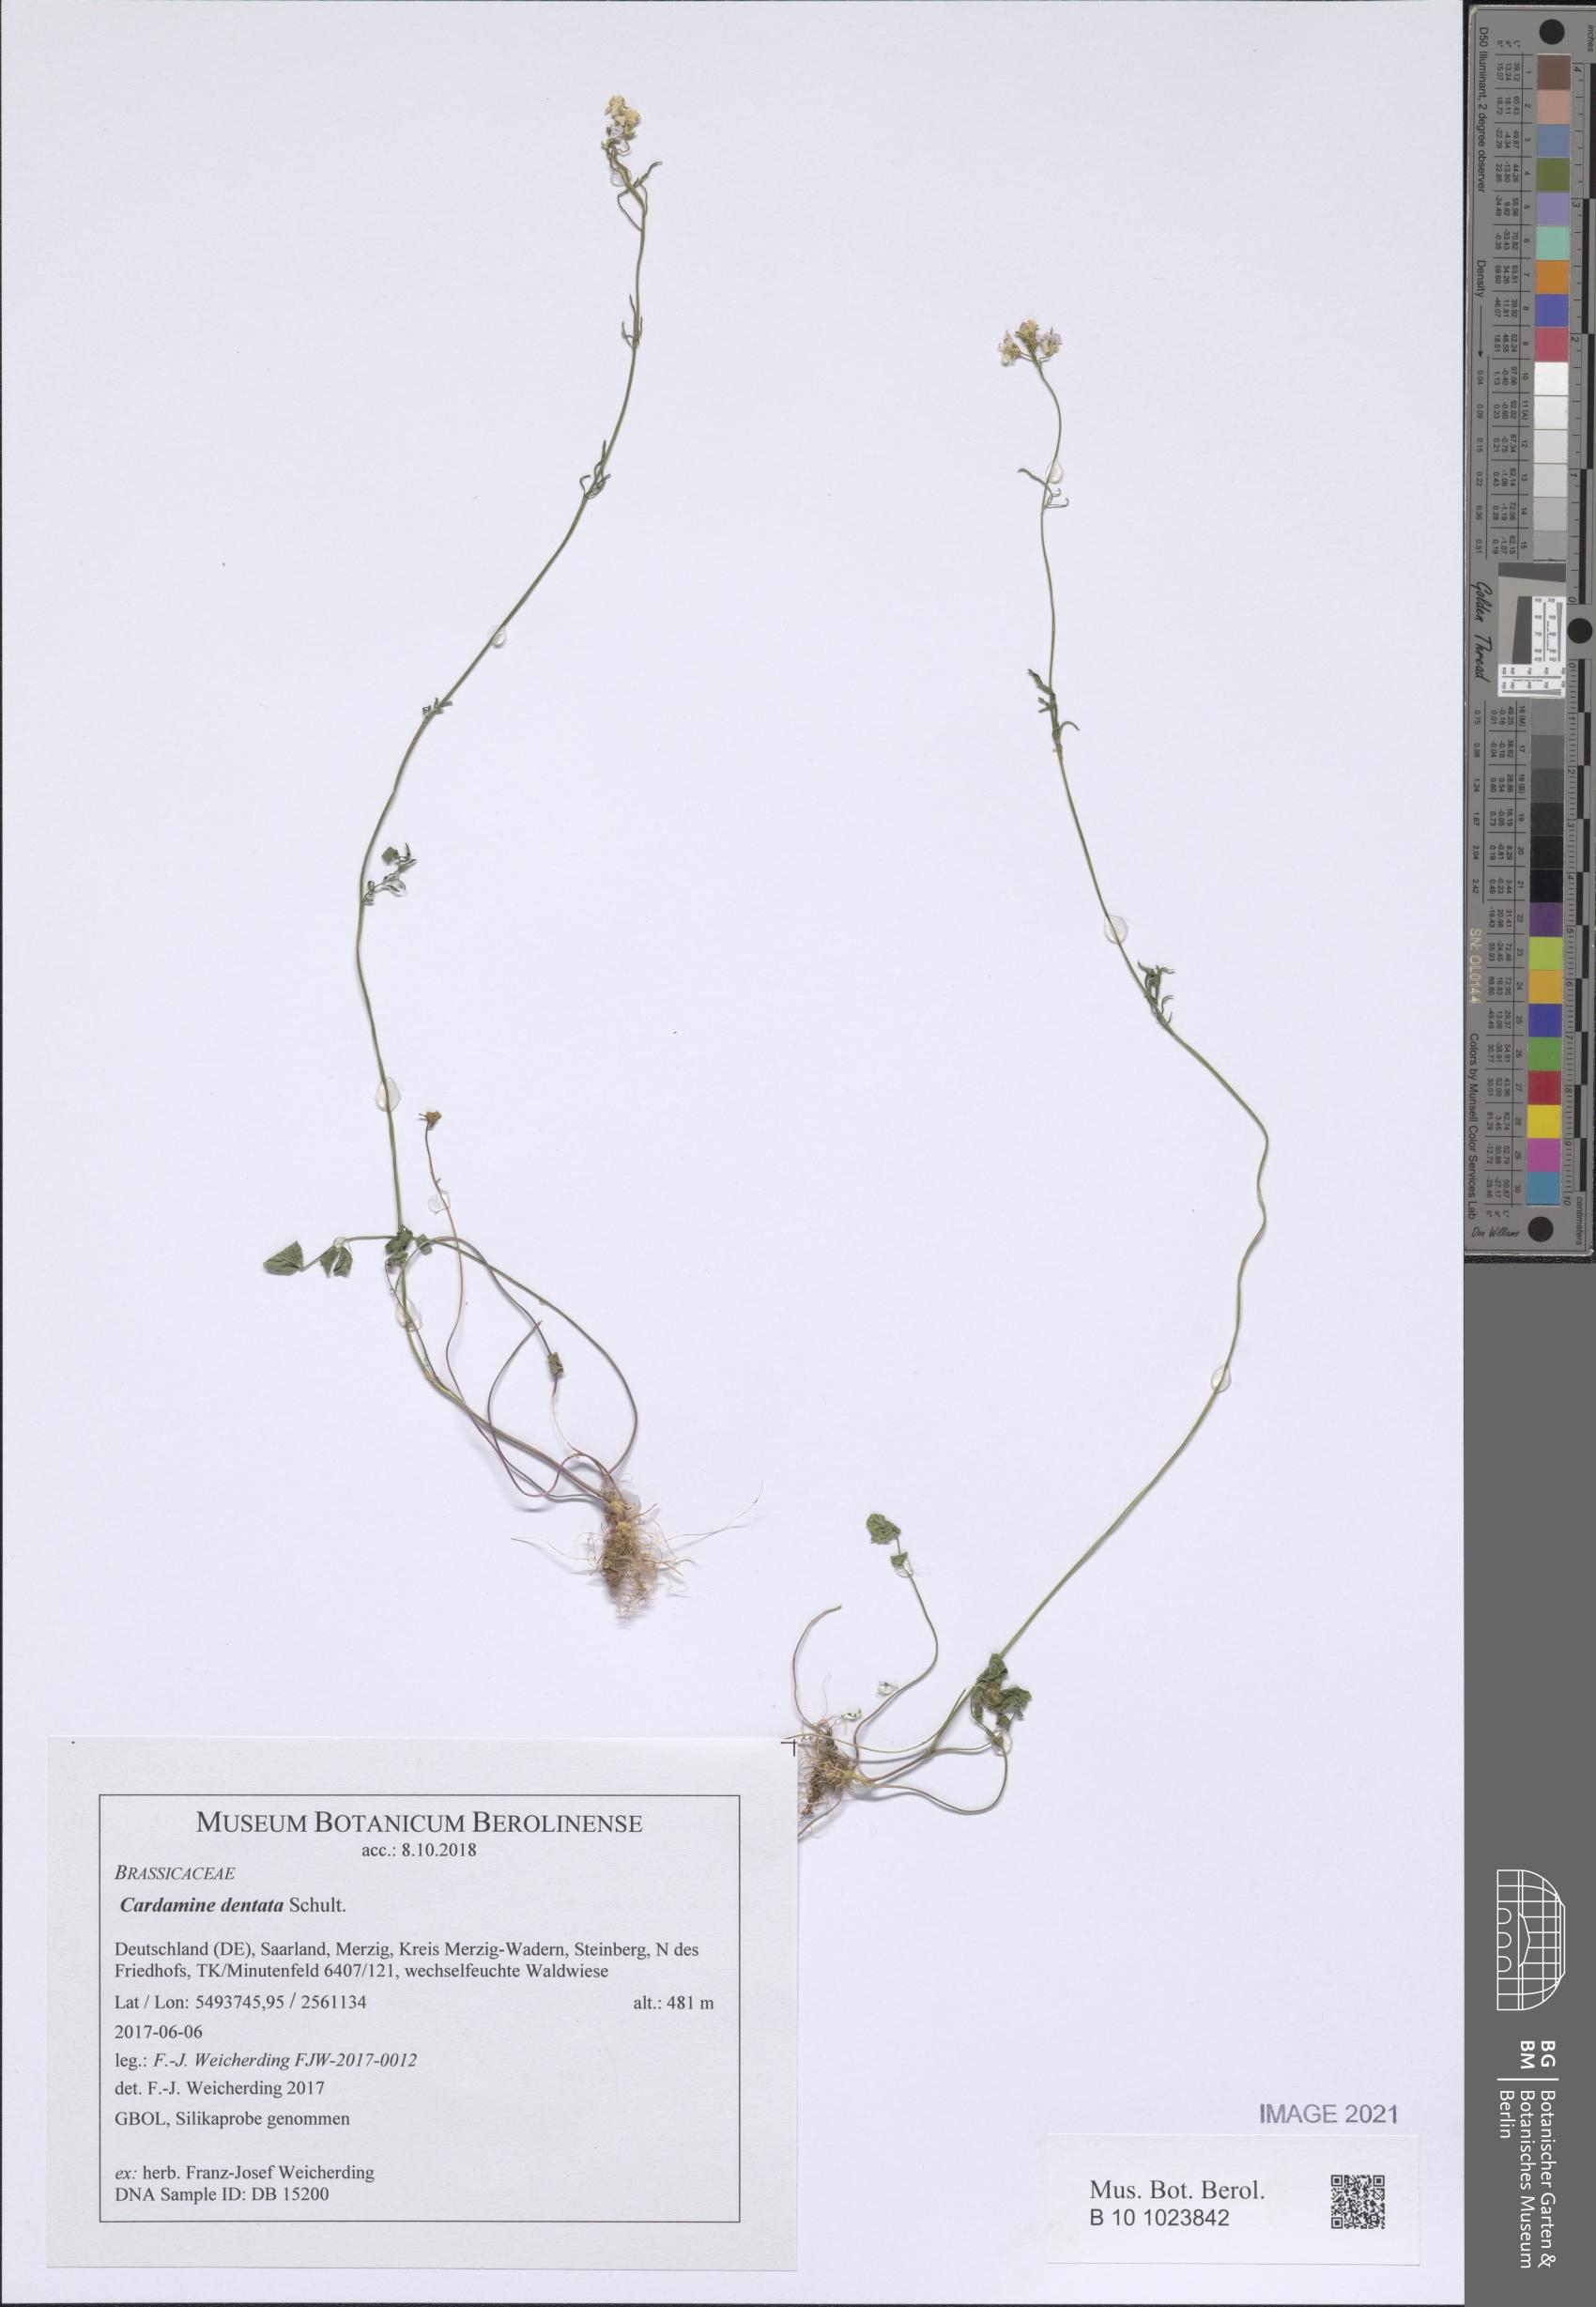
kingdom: Plantae
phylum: Tracheophyta
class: Magnoliopsida
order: Brassicales
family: Brassicaceae
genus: Cardamine
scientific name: Cardamine dentata
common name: Toothed bittercress
